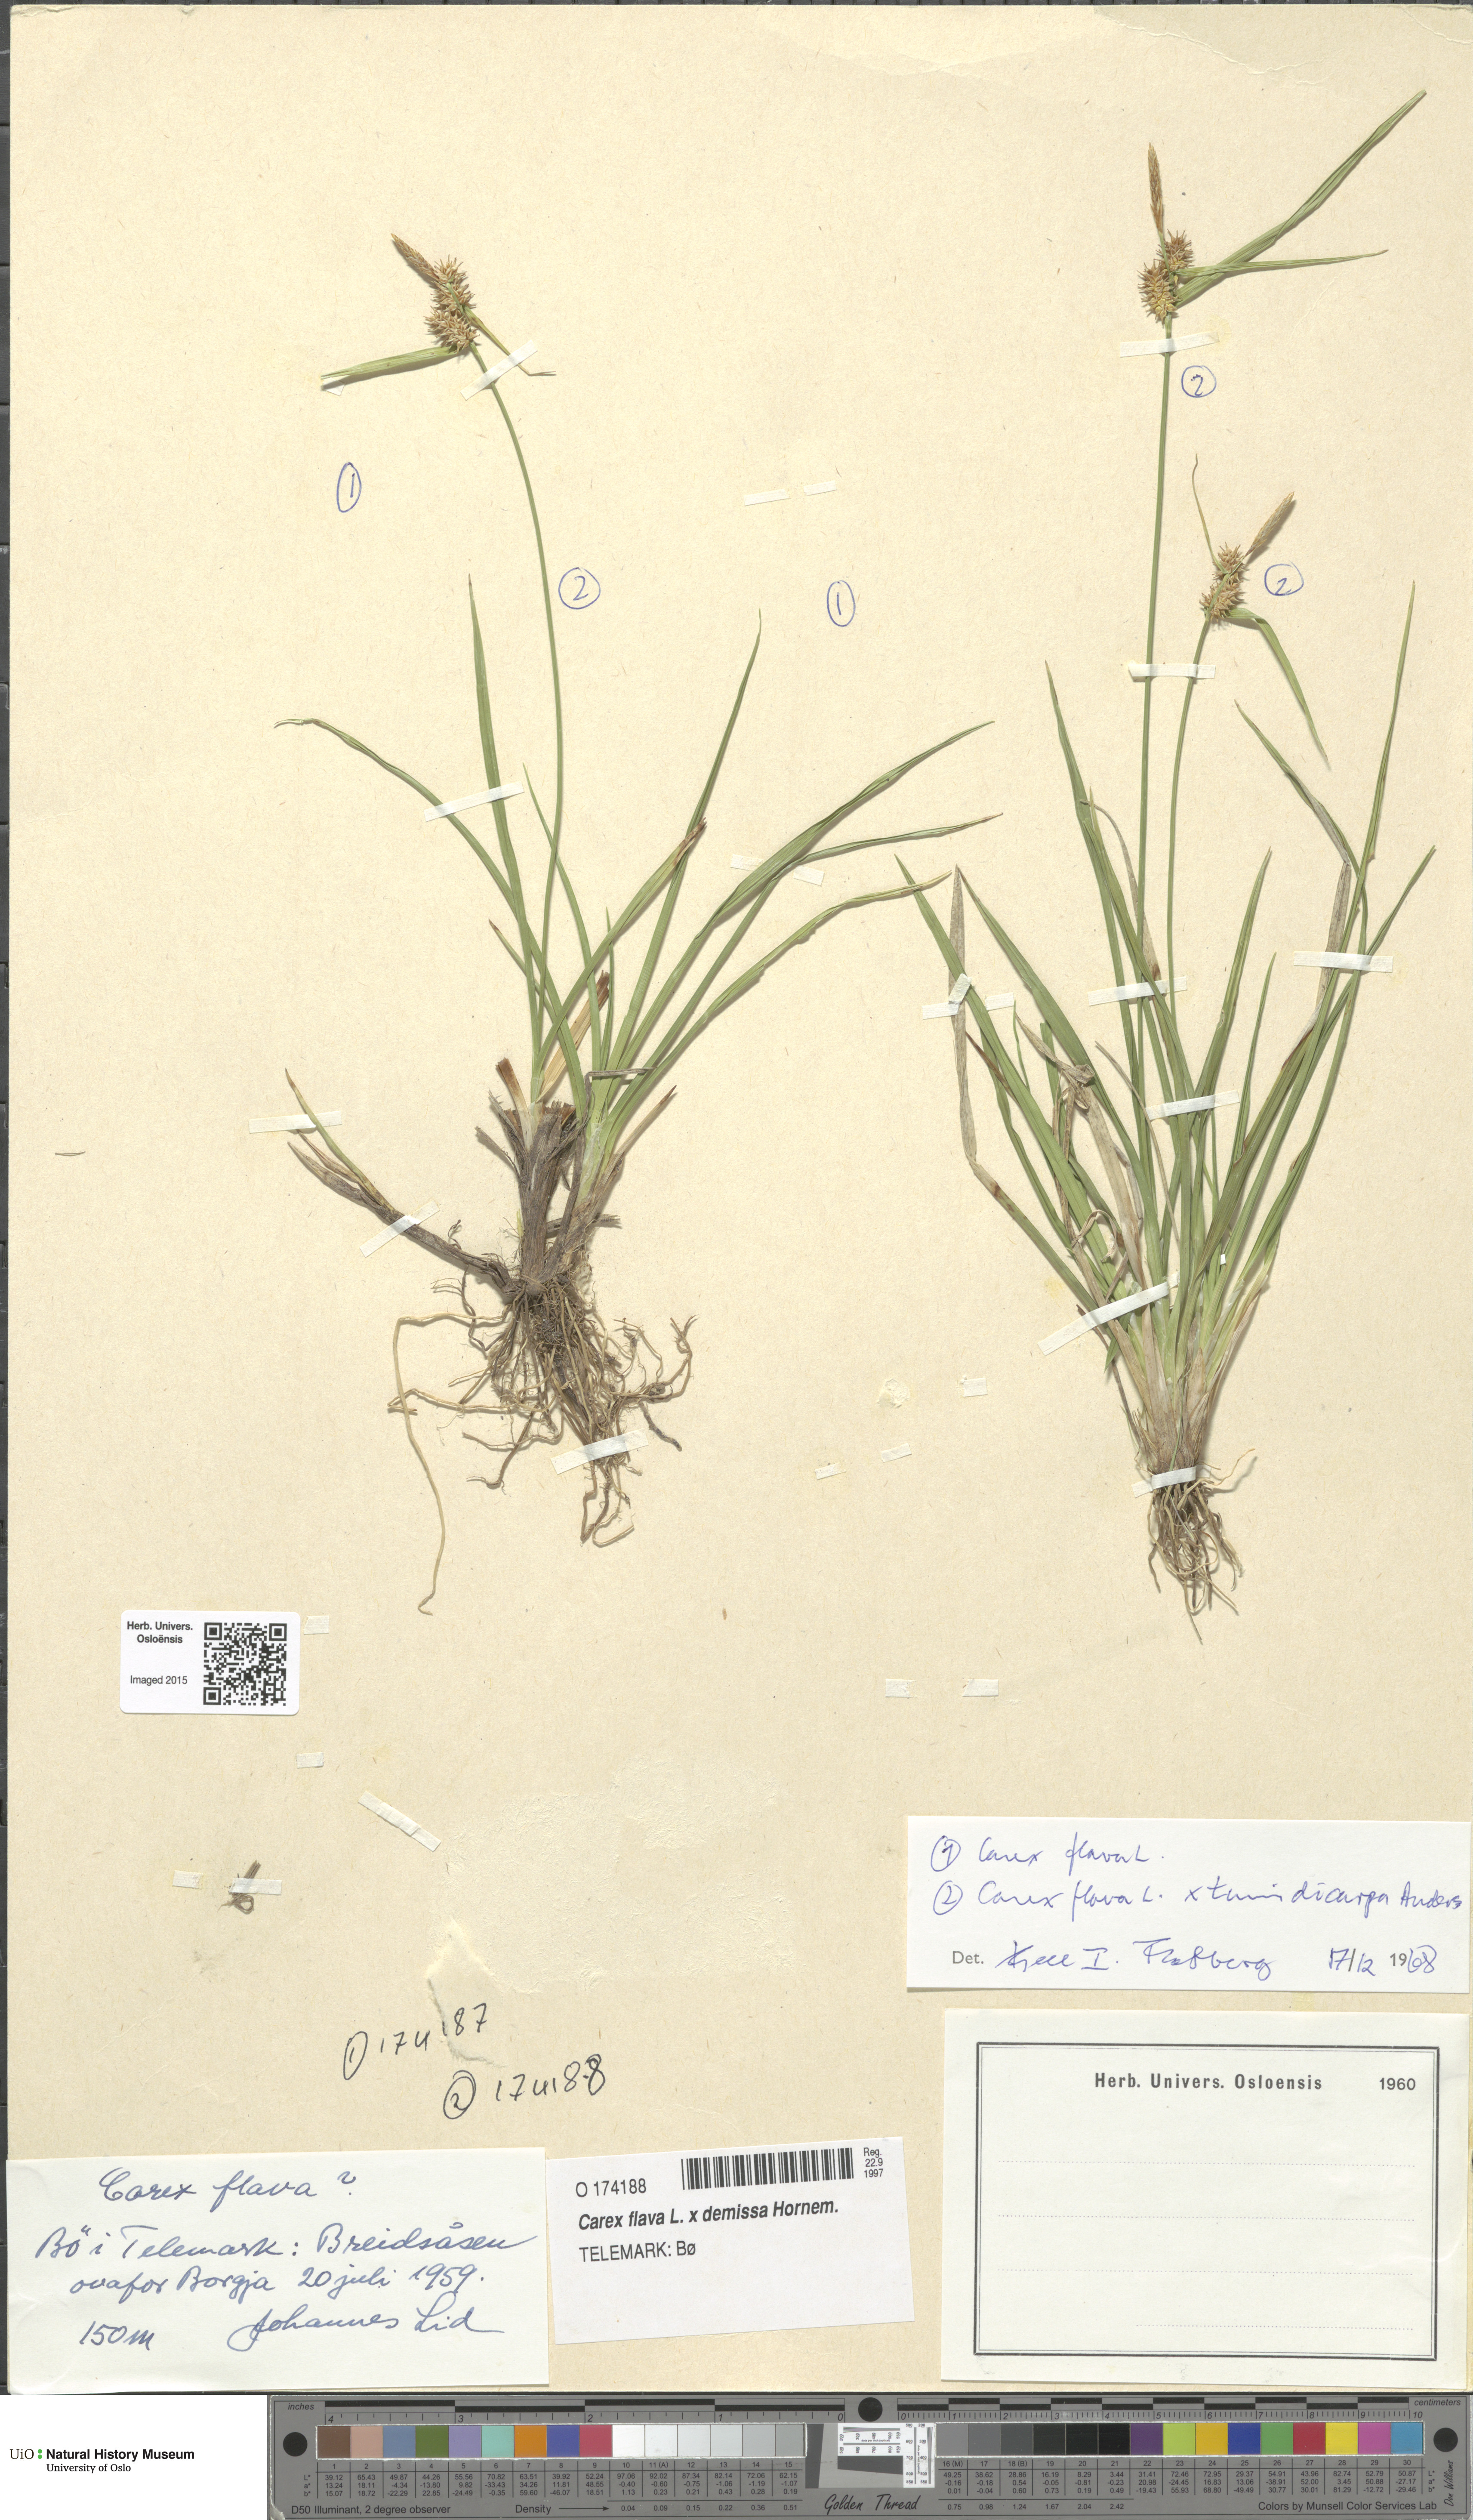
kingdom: Plantae
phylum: Tracheophyta
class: Liliopsida
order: Poales
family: Cyperaceae
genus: Carex
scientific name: Carex
